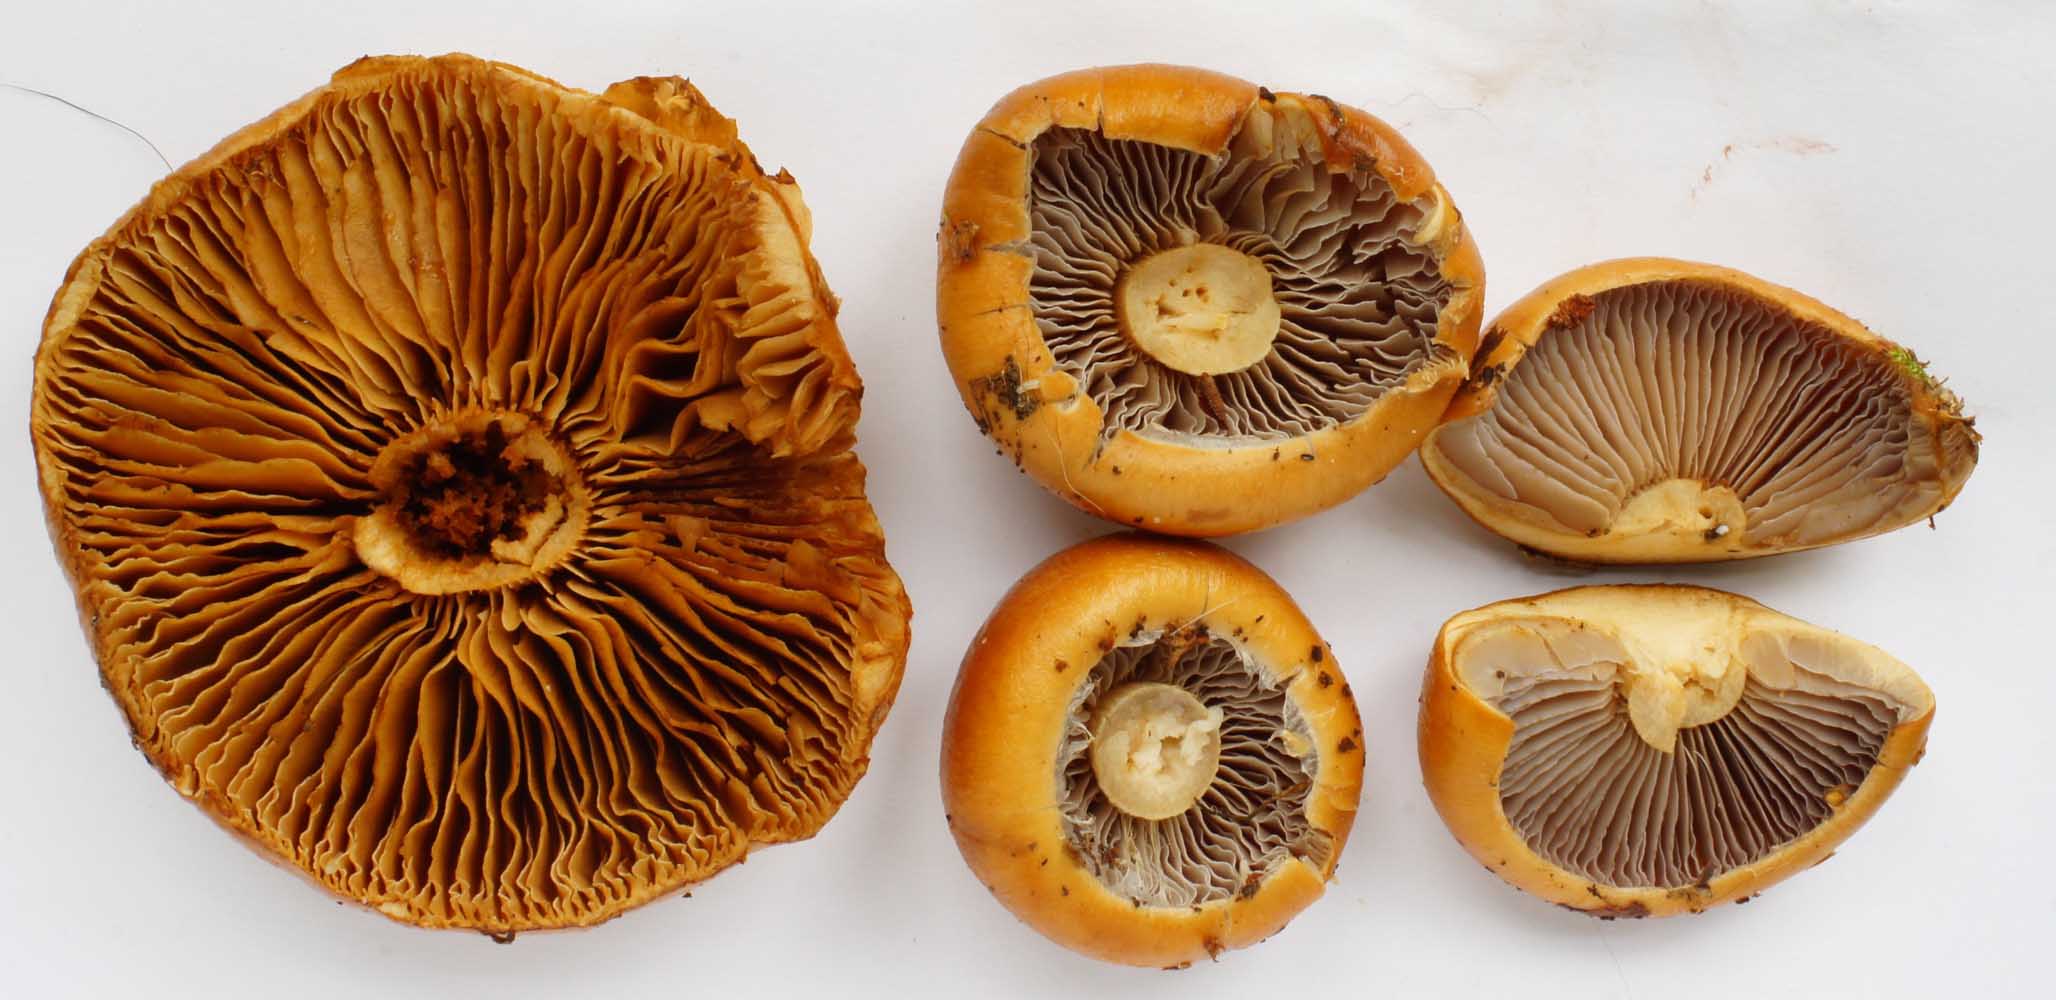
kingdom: Fungi
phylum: Basidiomycota
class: Agaricomycetes
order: Agaricales
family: Cortinariaceae
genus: Cortinarius
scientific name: Cortinarius trivialis
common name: brunslimet slørhat
